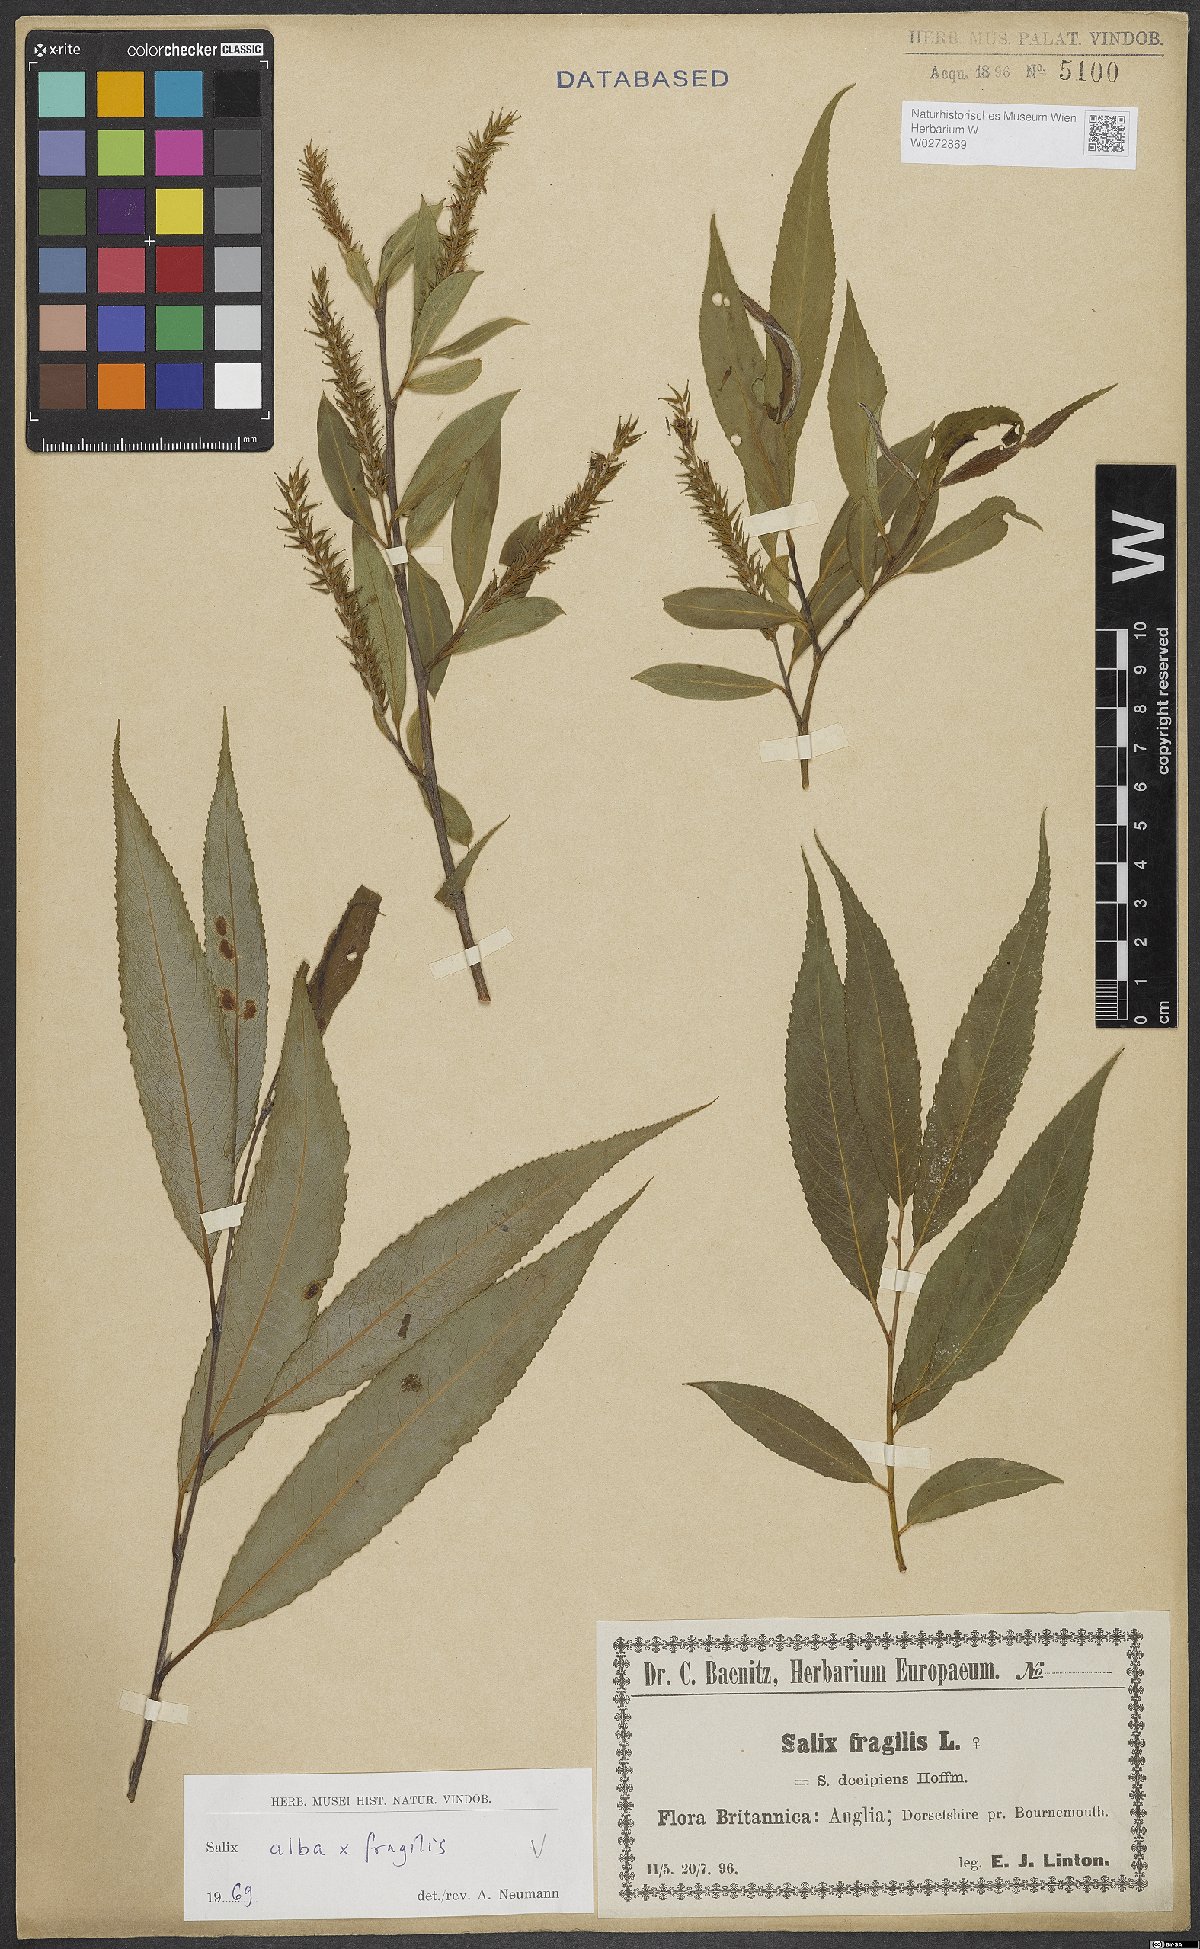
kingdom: Plantae
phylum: Tracheophyta
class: Magnoliopsida
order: Malpighiales
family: Salicaceae
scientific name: Salicaceae
